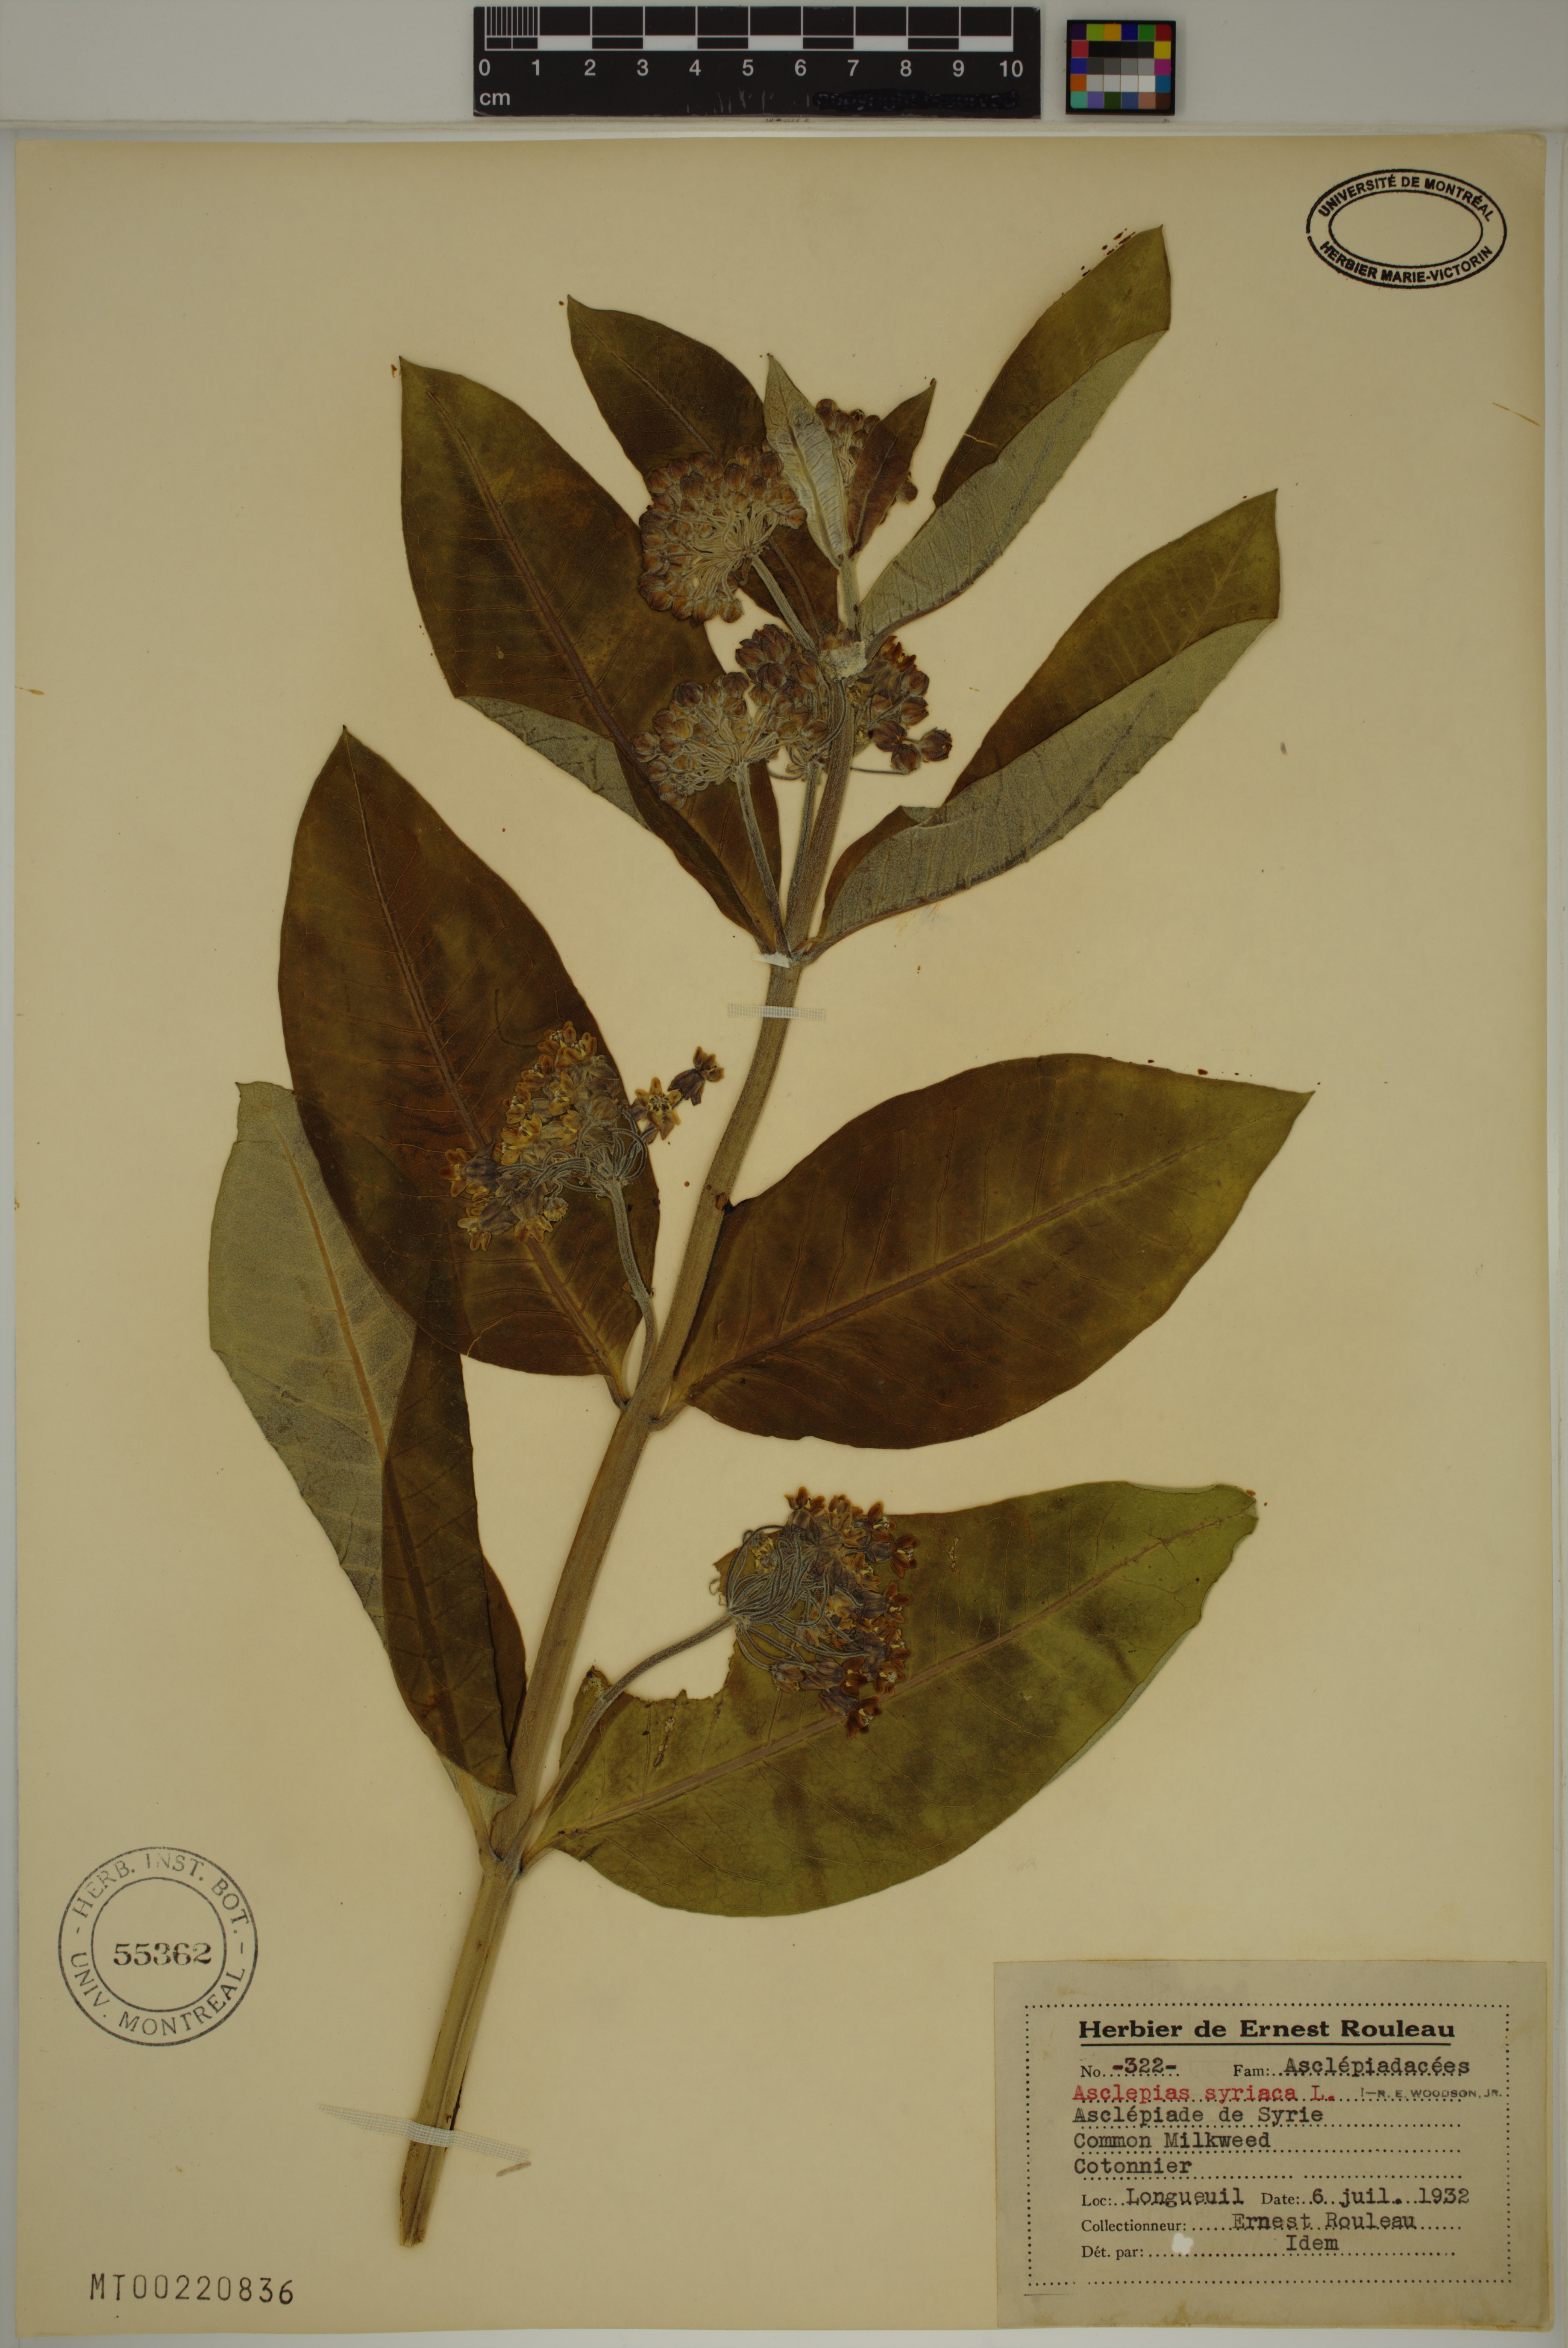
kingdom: Plantae
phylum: Tracheophyta
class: Magnoliopsida
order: Gentianales
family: Apocynaceae
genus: Asclepias
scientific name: Asclepias syriaca
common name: Common milkweed
